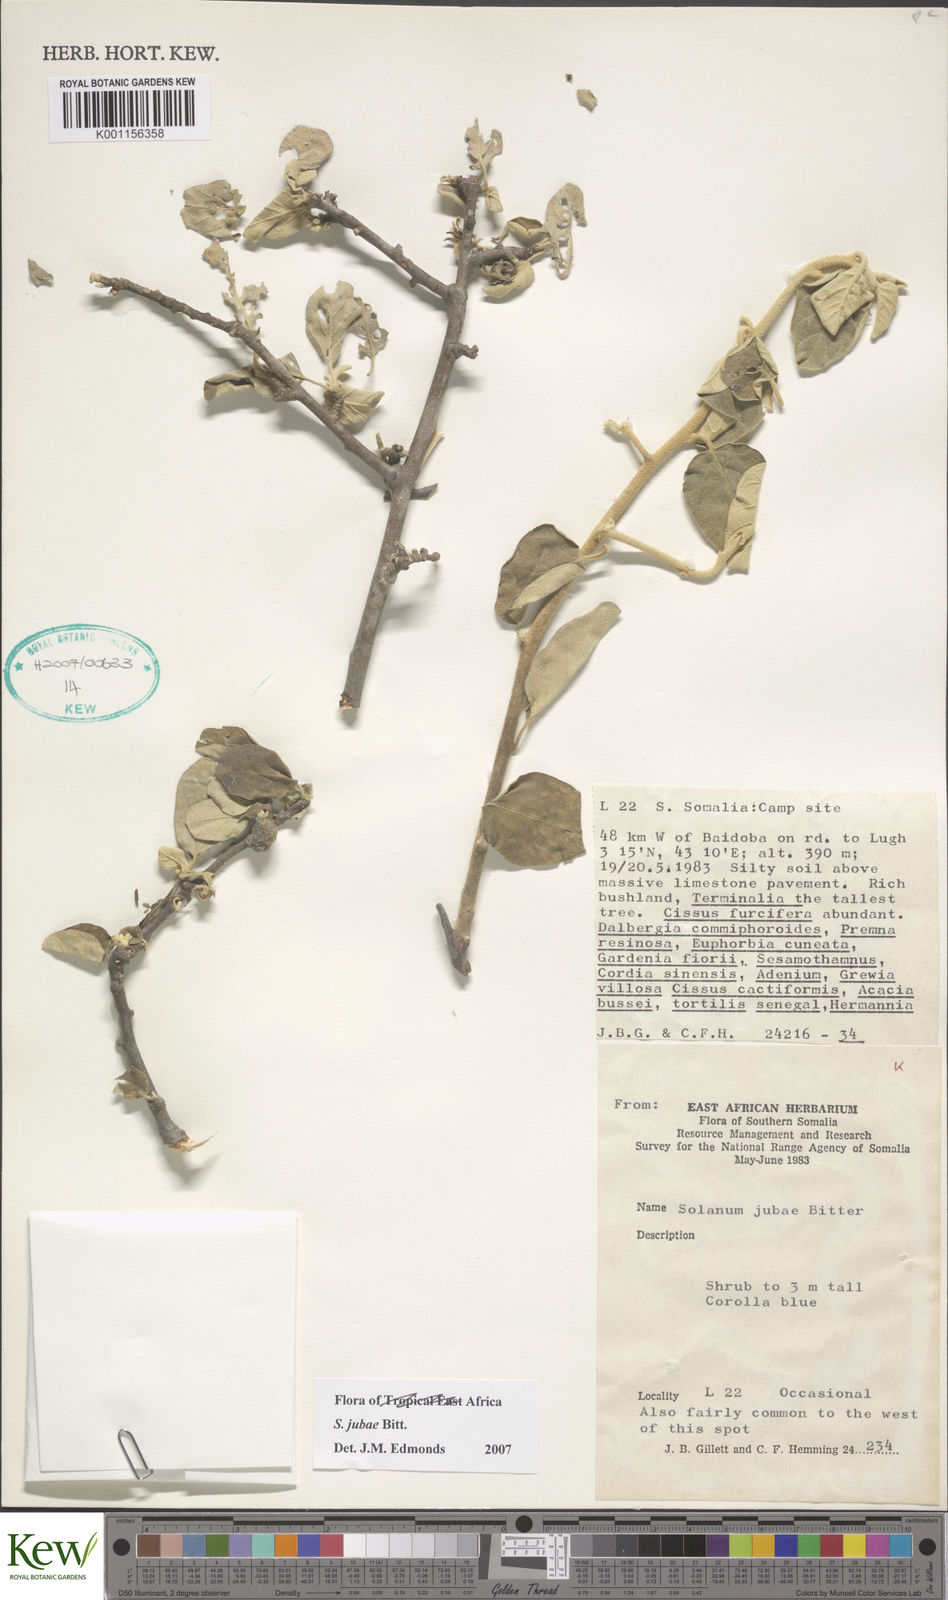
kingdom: Plantae
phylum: Tracheophyta
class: Magnoliopsida
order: Solanales
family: Solanaceae
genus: Solanum
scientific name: Solanum jubae
